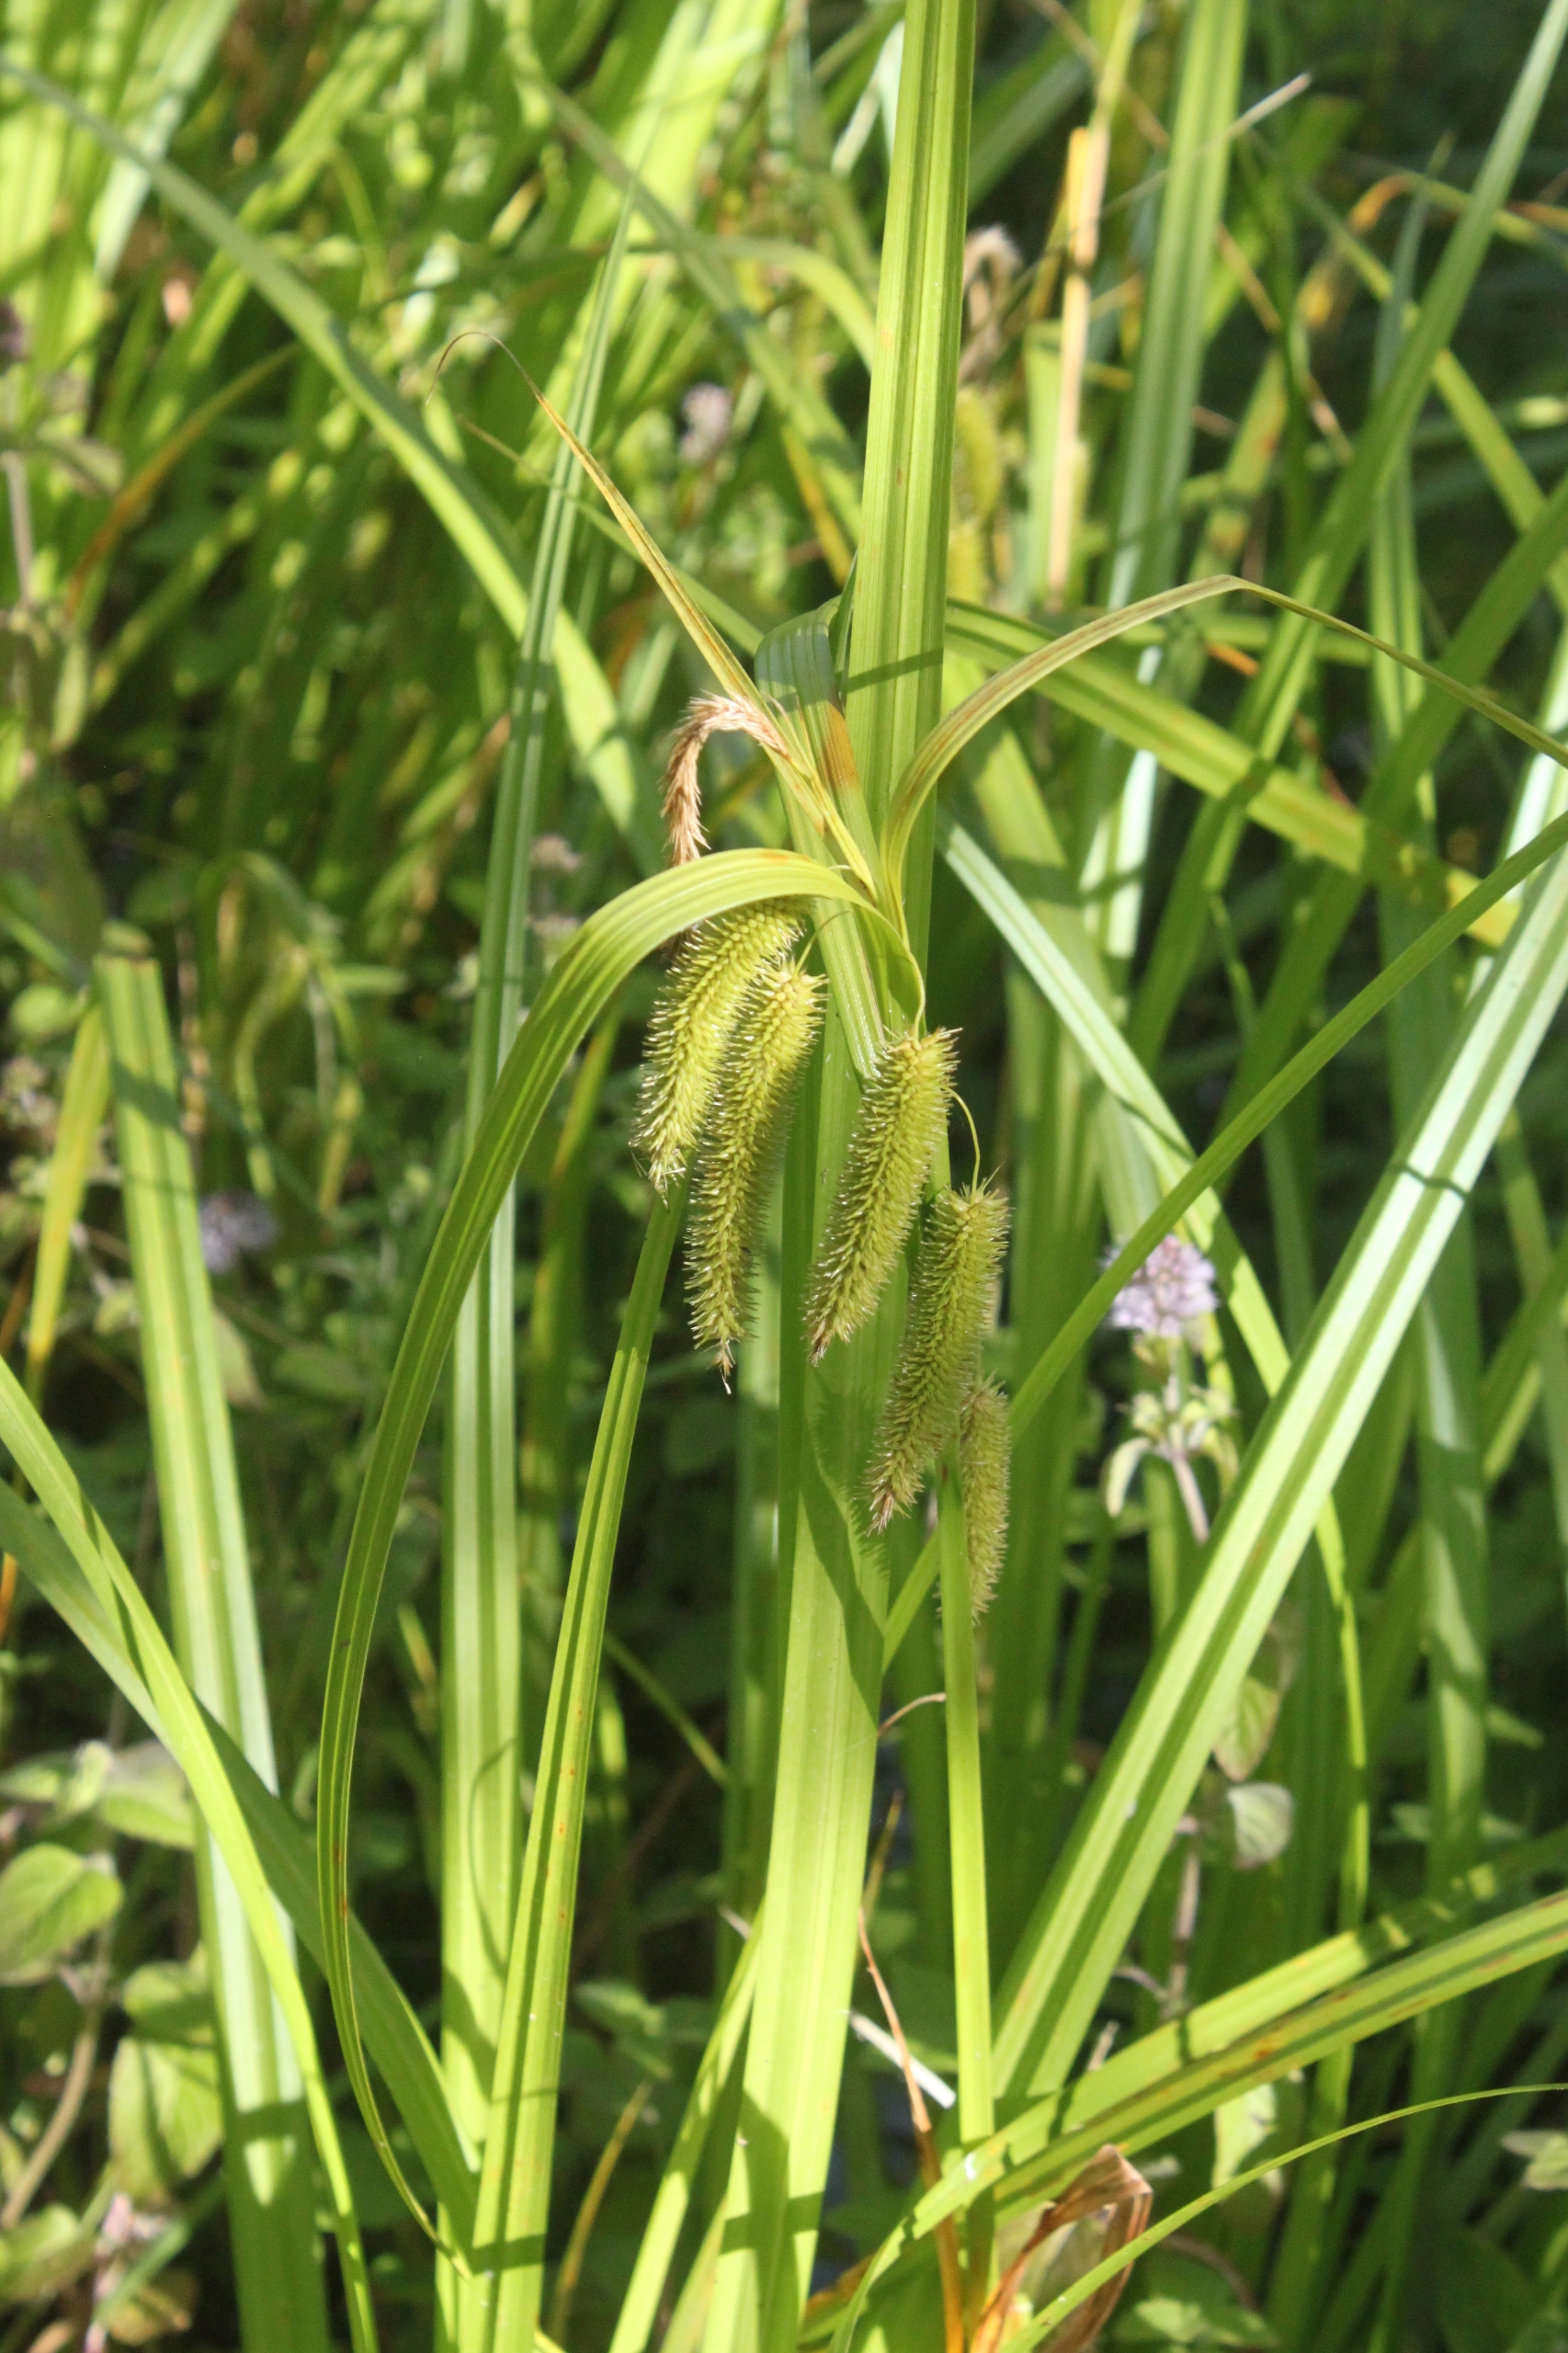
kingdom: Plantae
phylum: Tracheophyta
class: Liliopsida
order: Poales
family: Cyperaceae
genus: Carex
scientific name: Carex pseudocyperus
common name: Knippe-star
